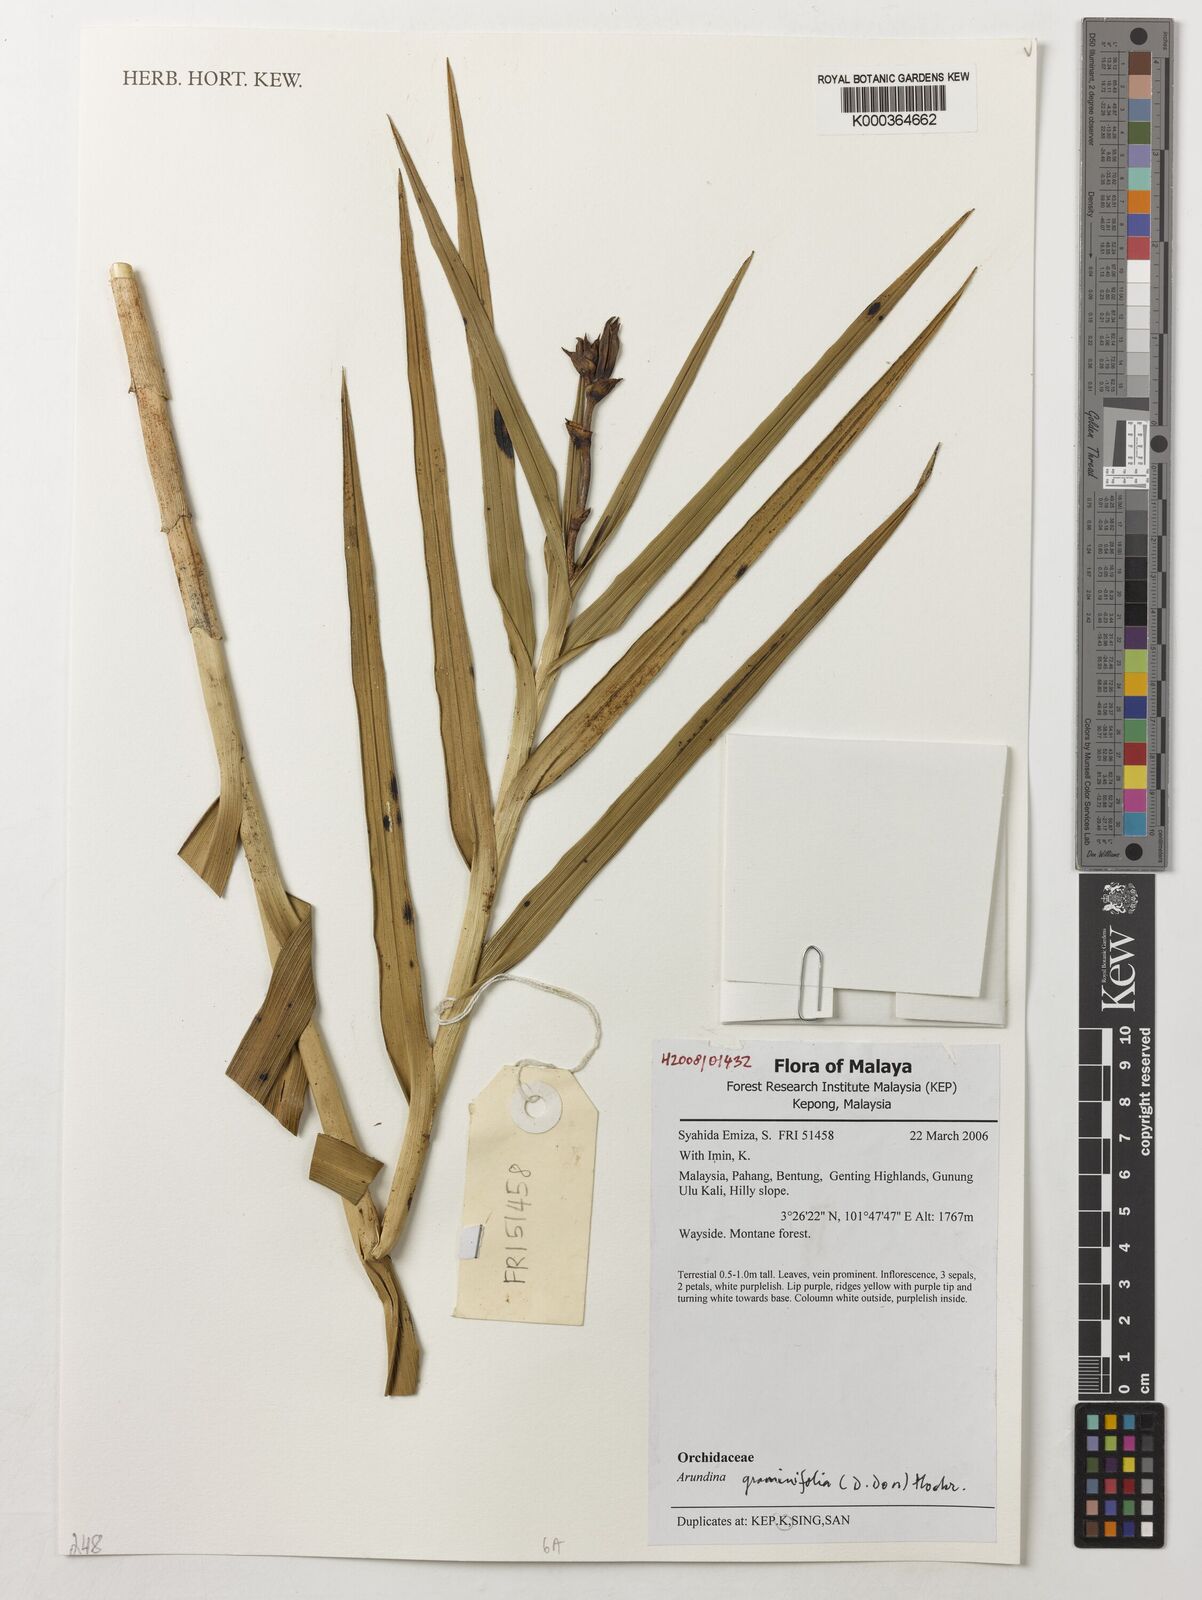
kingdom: Plantae
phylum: Tracheophyta
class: Liliopsida
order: Asparagales
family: Orchidaceae
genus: Arundina
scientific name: Arundina
